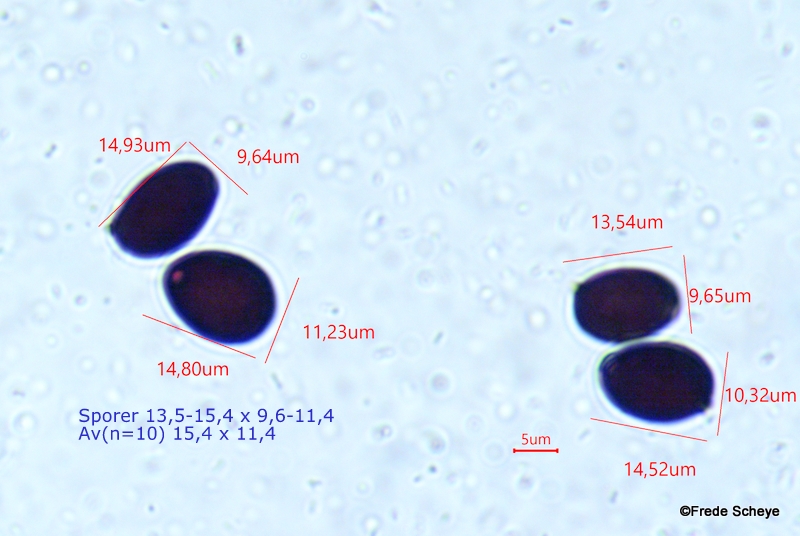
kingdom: Fungi
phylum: Basidiomycota
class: Agaricomycetes
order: Agaricales
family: Psathyrellaceae
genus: Parasola
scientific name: Parasola schroeteri
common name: bredsporet hjulhat
